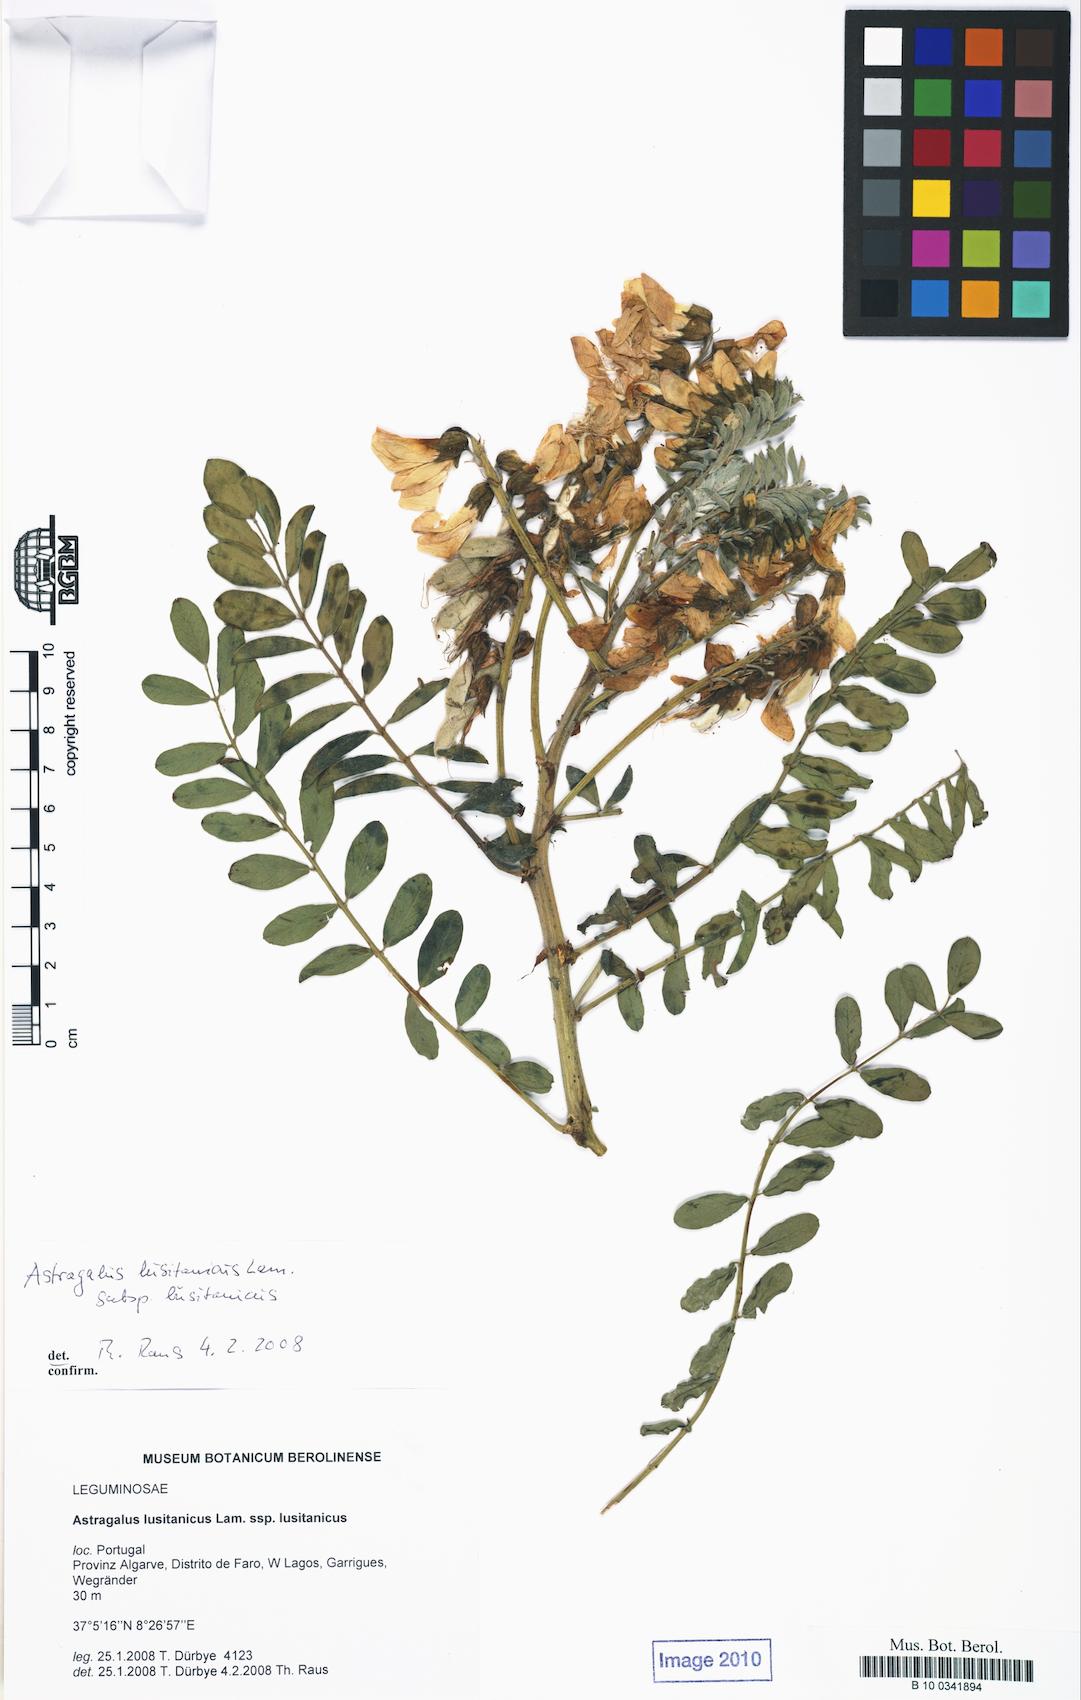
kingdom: Plantae
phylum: Tracheophyta
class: Magnoliopsida
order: Fabales
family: Fabaceae
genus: Erophaca
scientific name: Erophaca baetica
